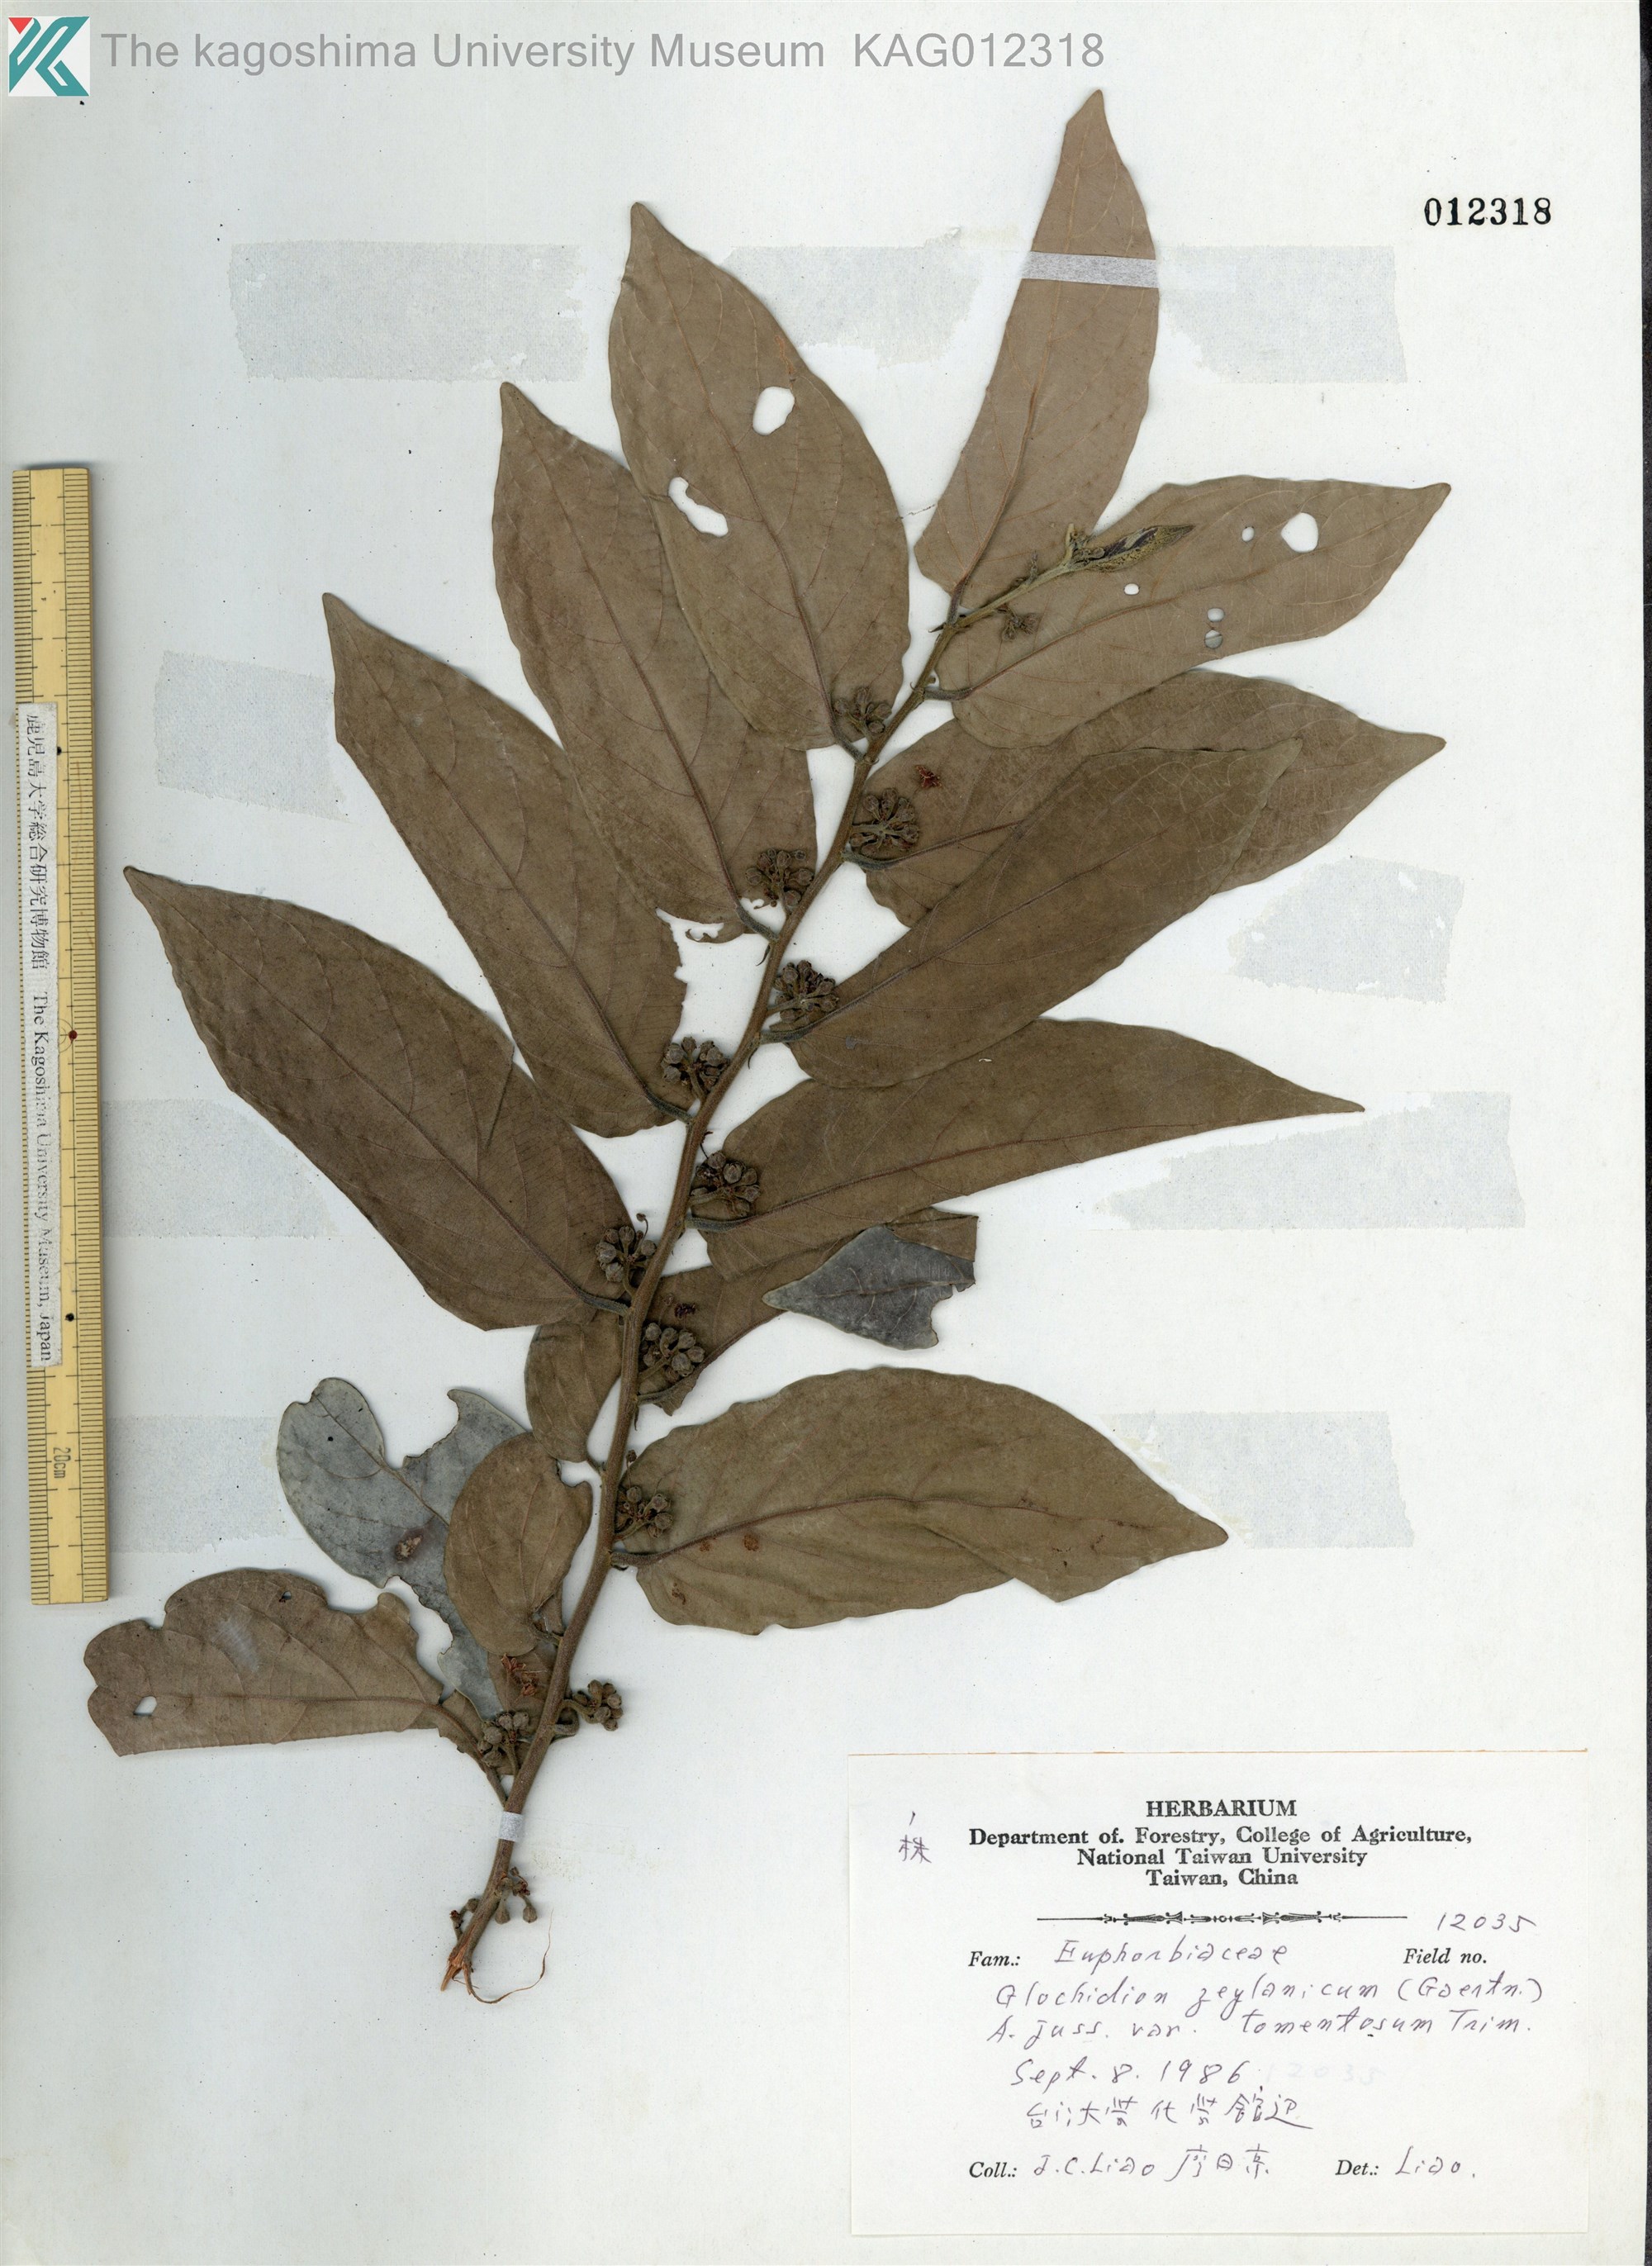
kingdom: Plantae
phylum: Tracheophyta
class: Magnoliopsida
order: Malpighiales
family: Phyllanthaceae
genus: Glochidion
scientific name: Glochidion zeylanicum
